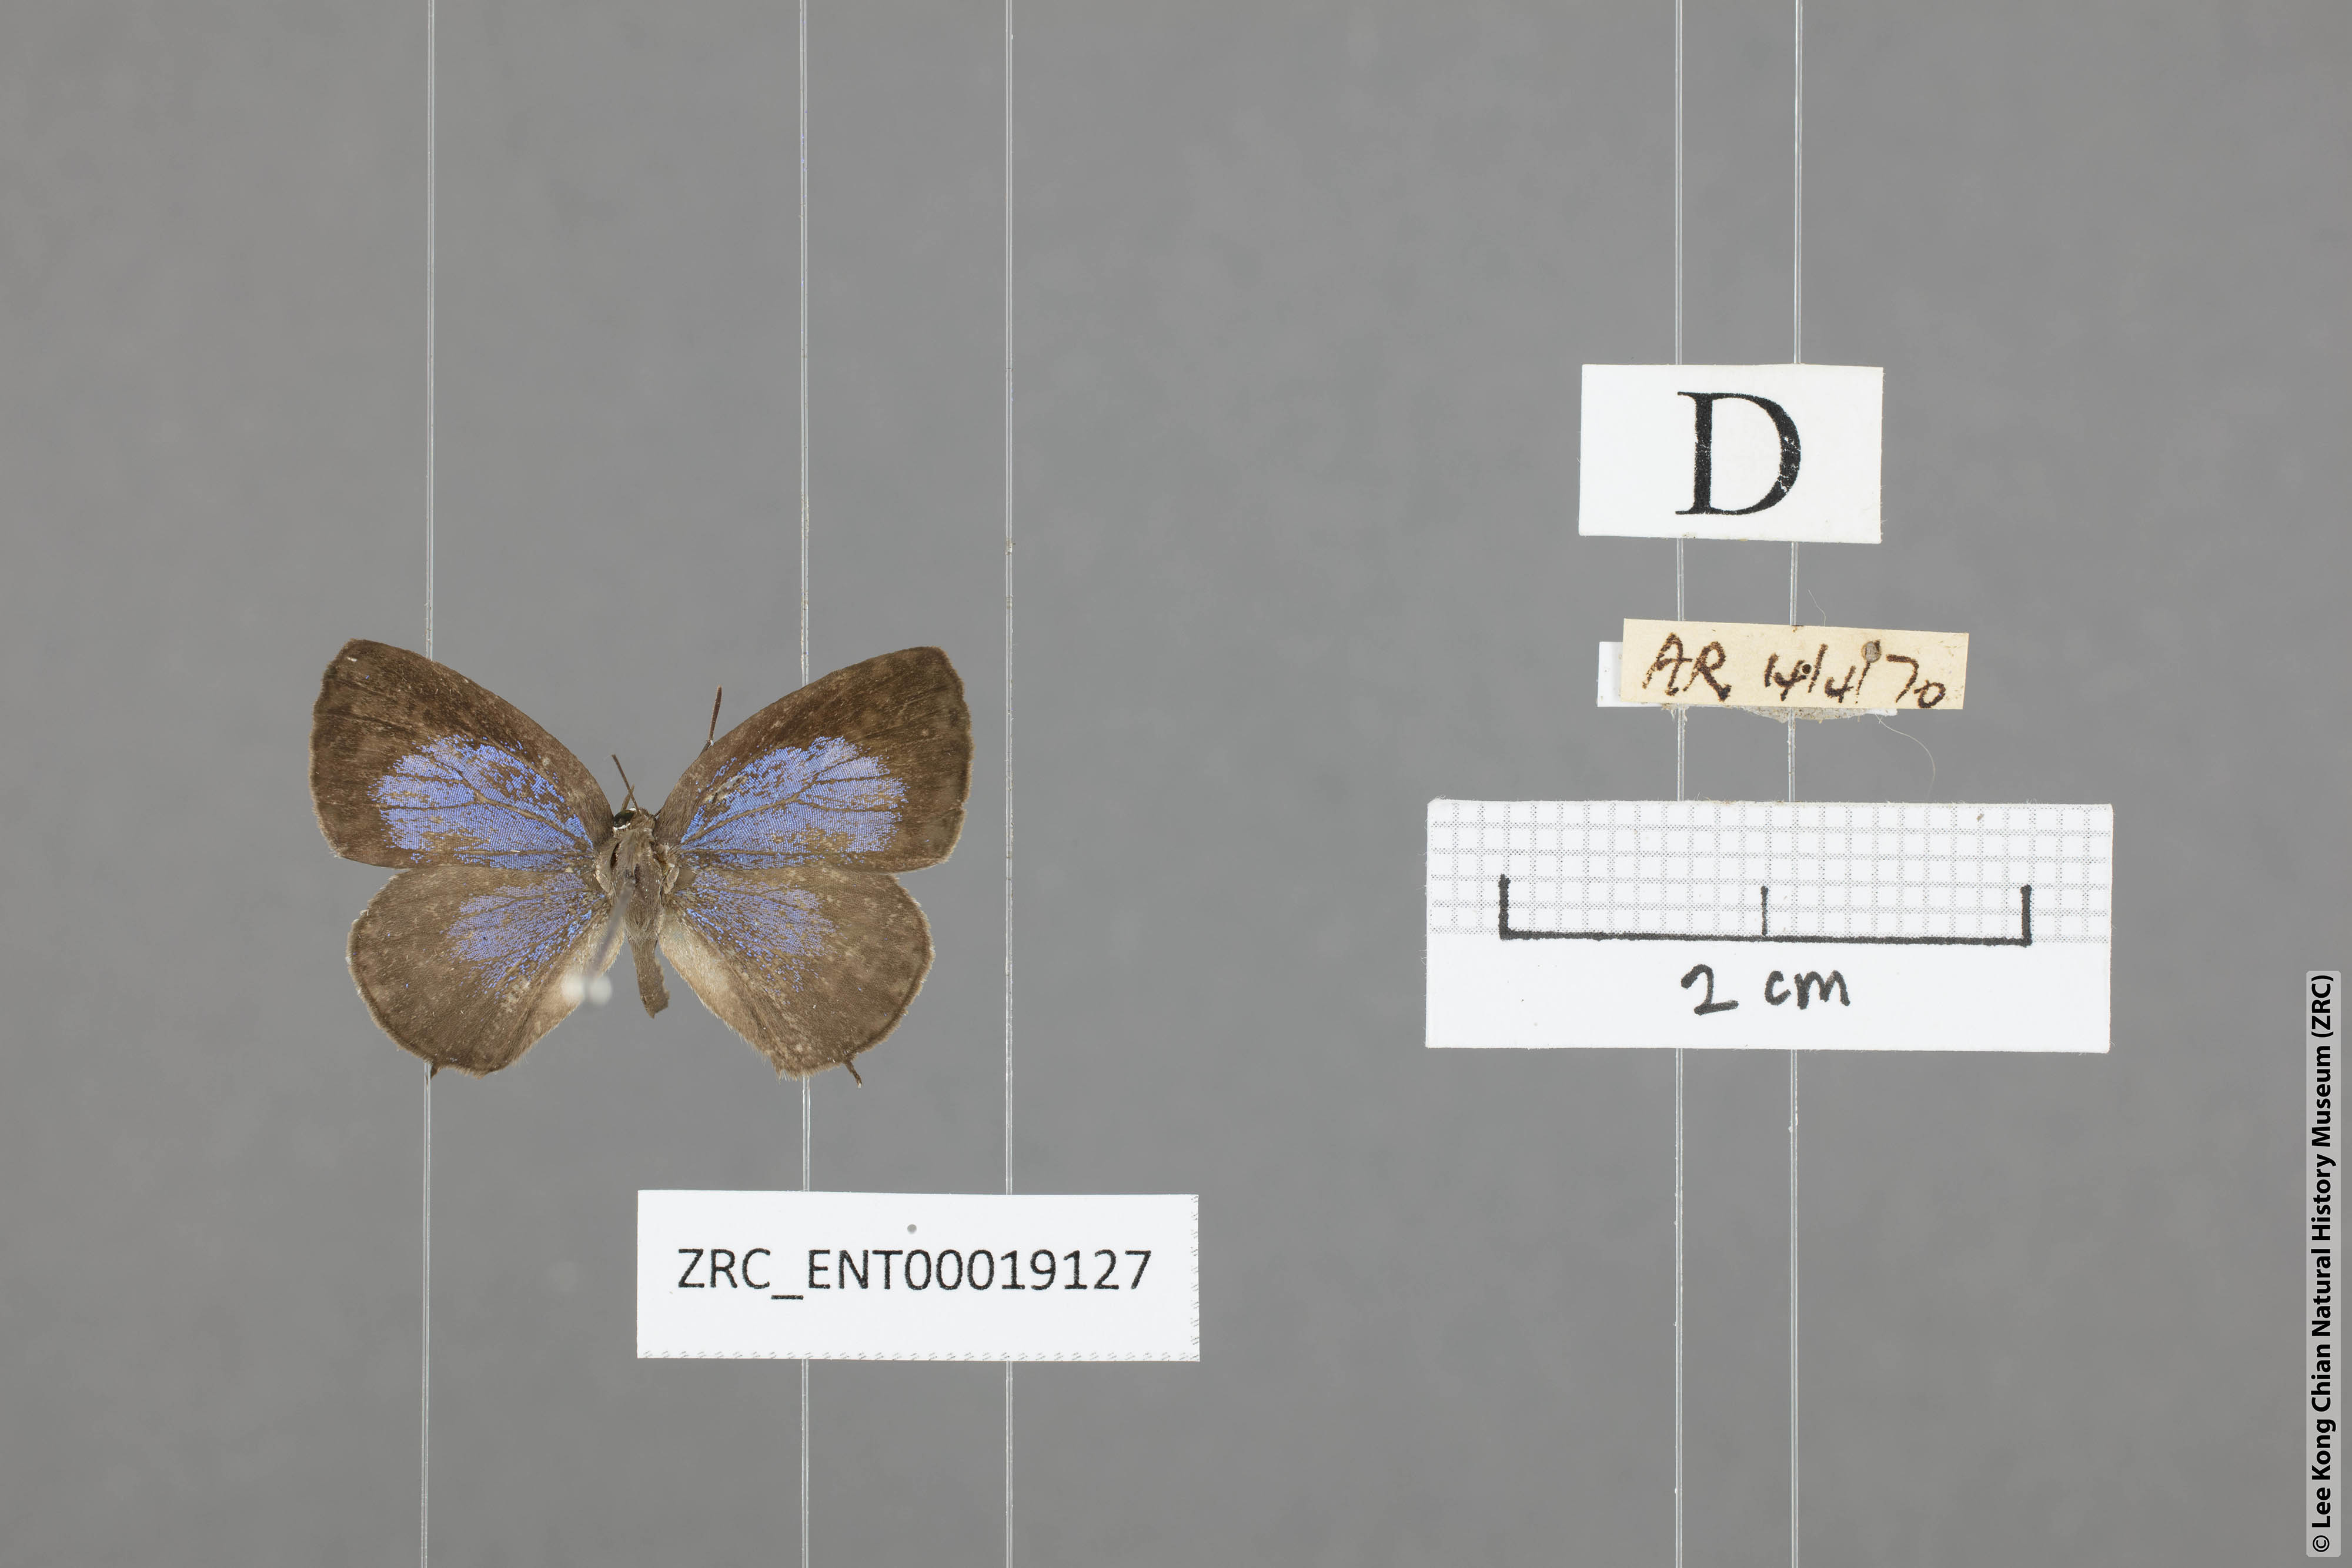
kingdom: Animalia
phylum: Arthropoda
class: Insecta
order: Lepidoptera
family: Lycaenidae
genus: Arhopala
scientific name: Arhopala ammonides
